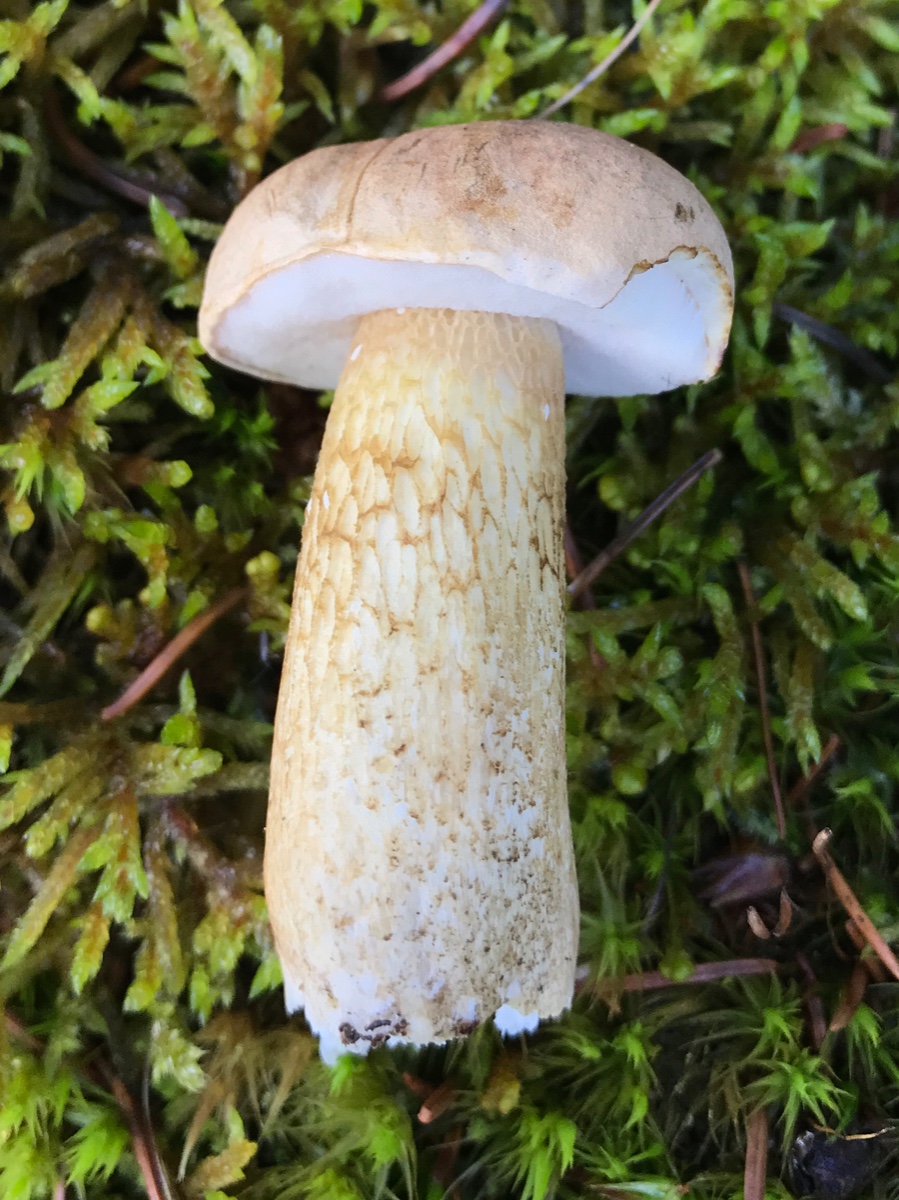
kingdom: Fungi
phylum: Basidiomycota
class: Agaricomycetes
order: Boletales
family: Boletaceae
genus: Tylopilus
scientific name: Tylopilus felleus
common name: galderørhat
